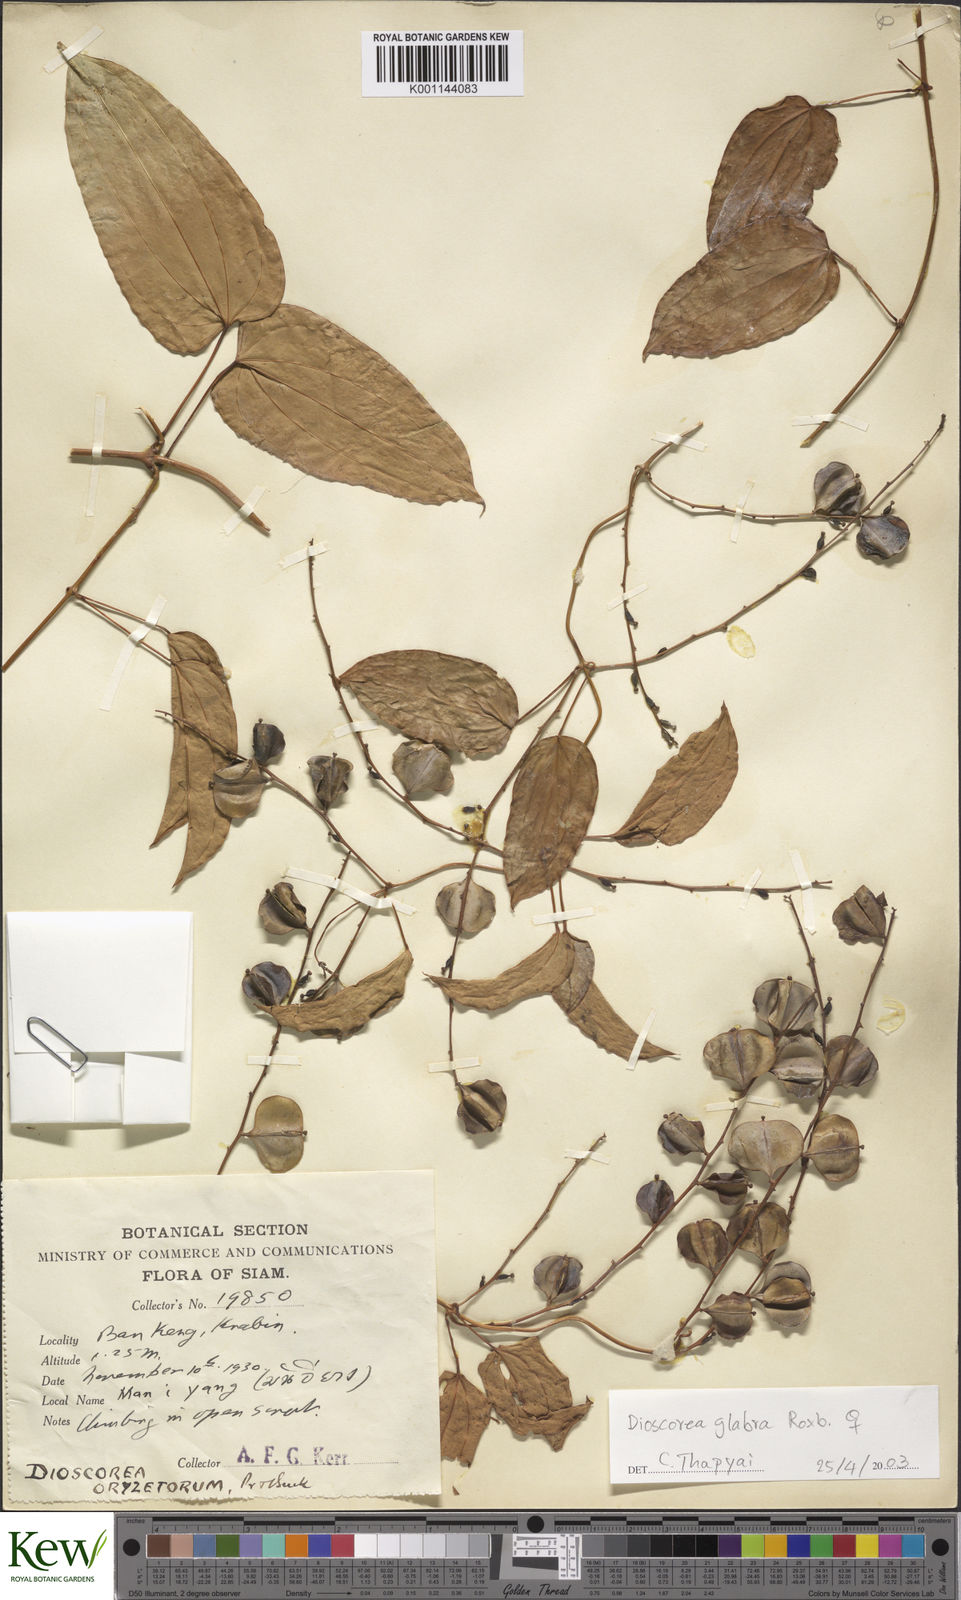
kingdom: Plantae
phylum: Tracheophyta
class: Liliopsida
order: Dioscoreales
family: Dioscoreaceae
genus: Dioscorea
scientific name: Dioscorea glabra
